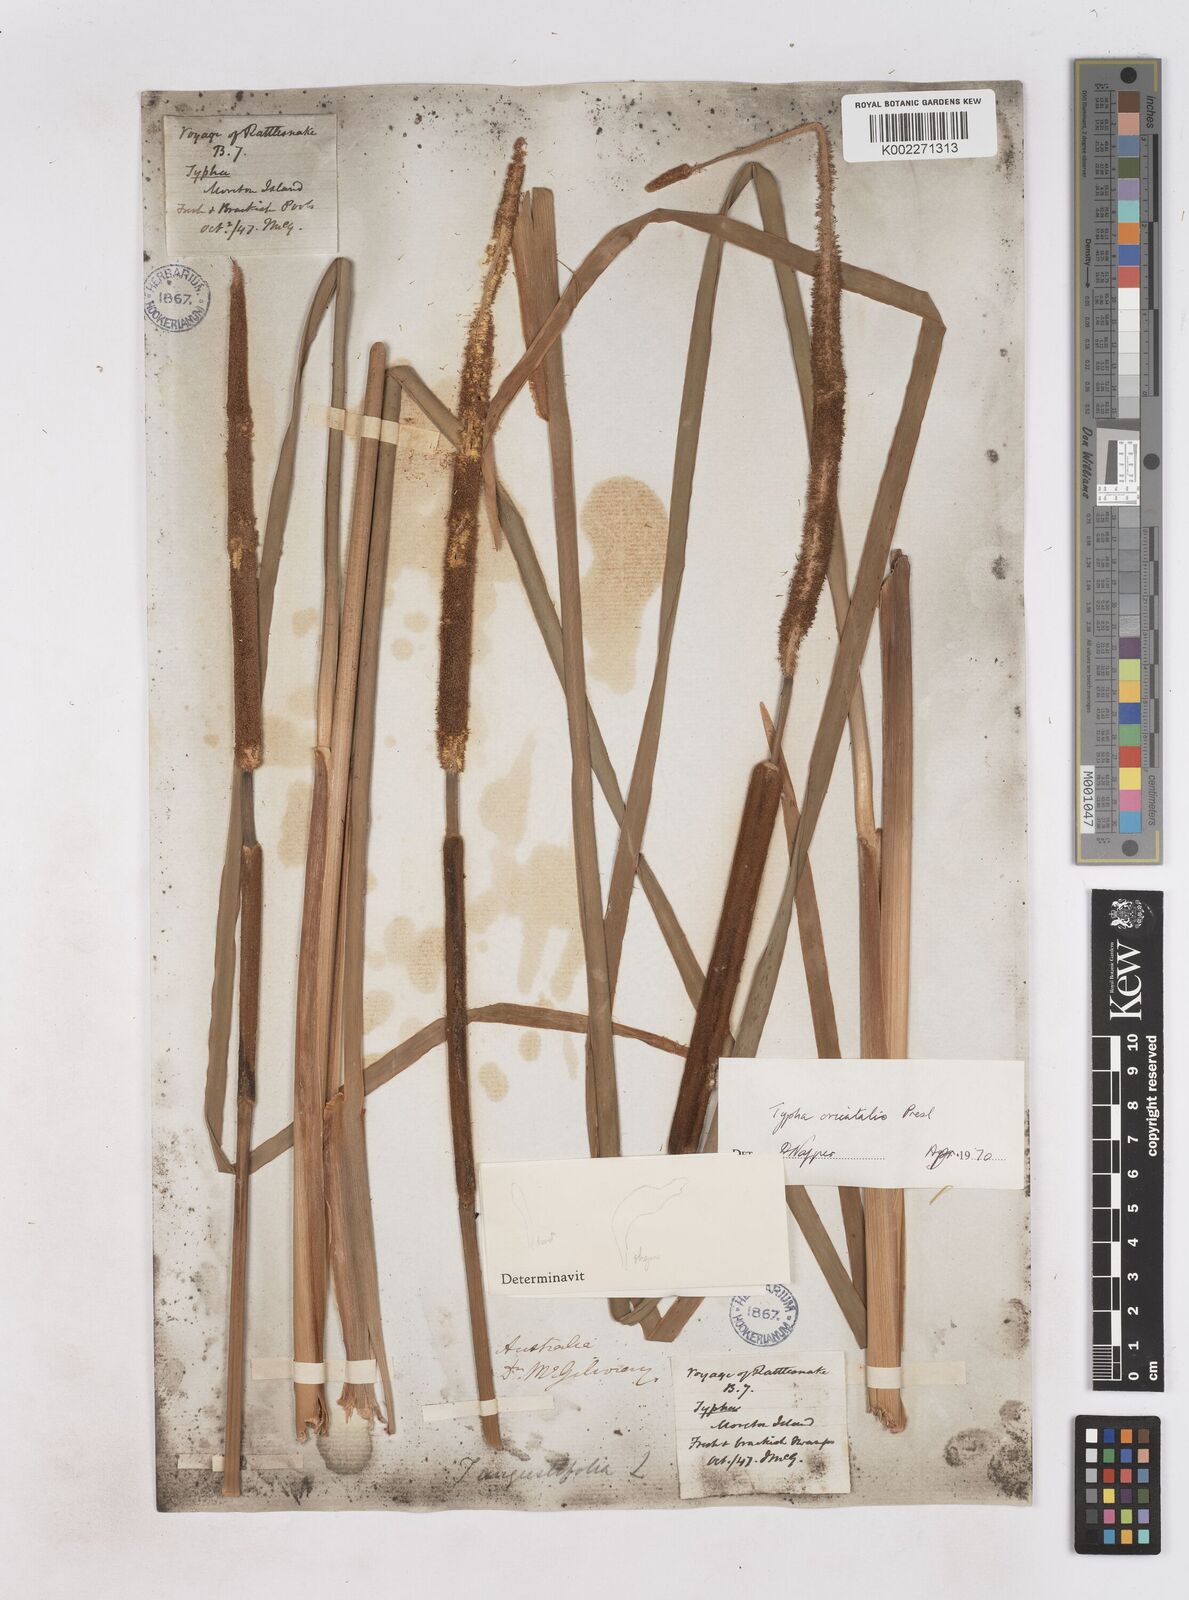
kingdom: Plantae
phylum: Tracheophyta
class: Liliopsida
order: Poales
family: Typhaceae
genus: Typha
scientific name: Typha orientalis
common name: Bullrush
